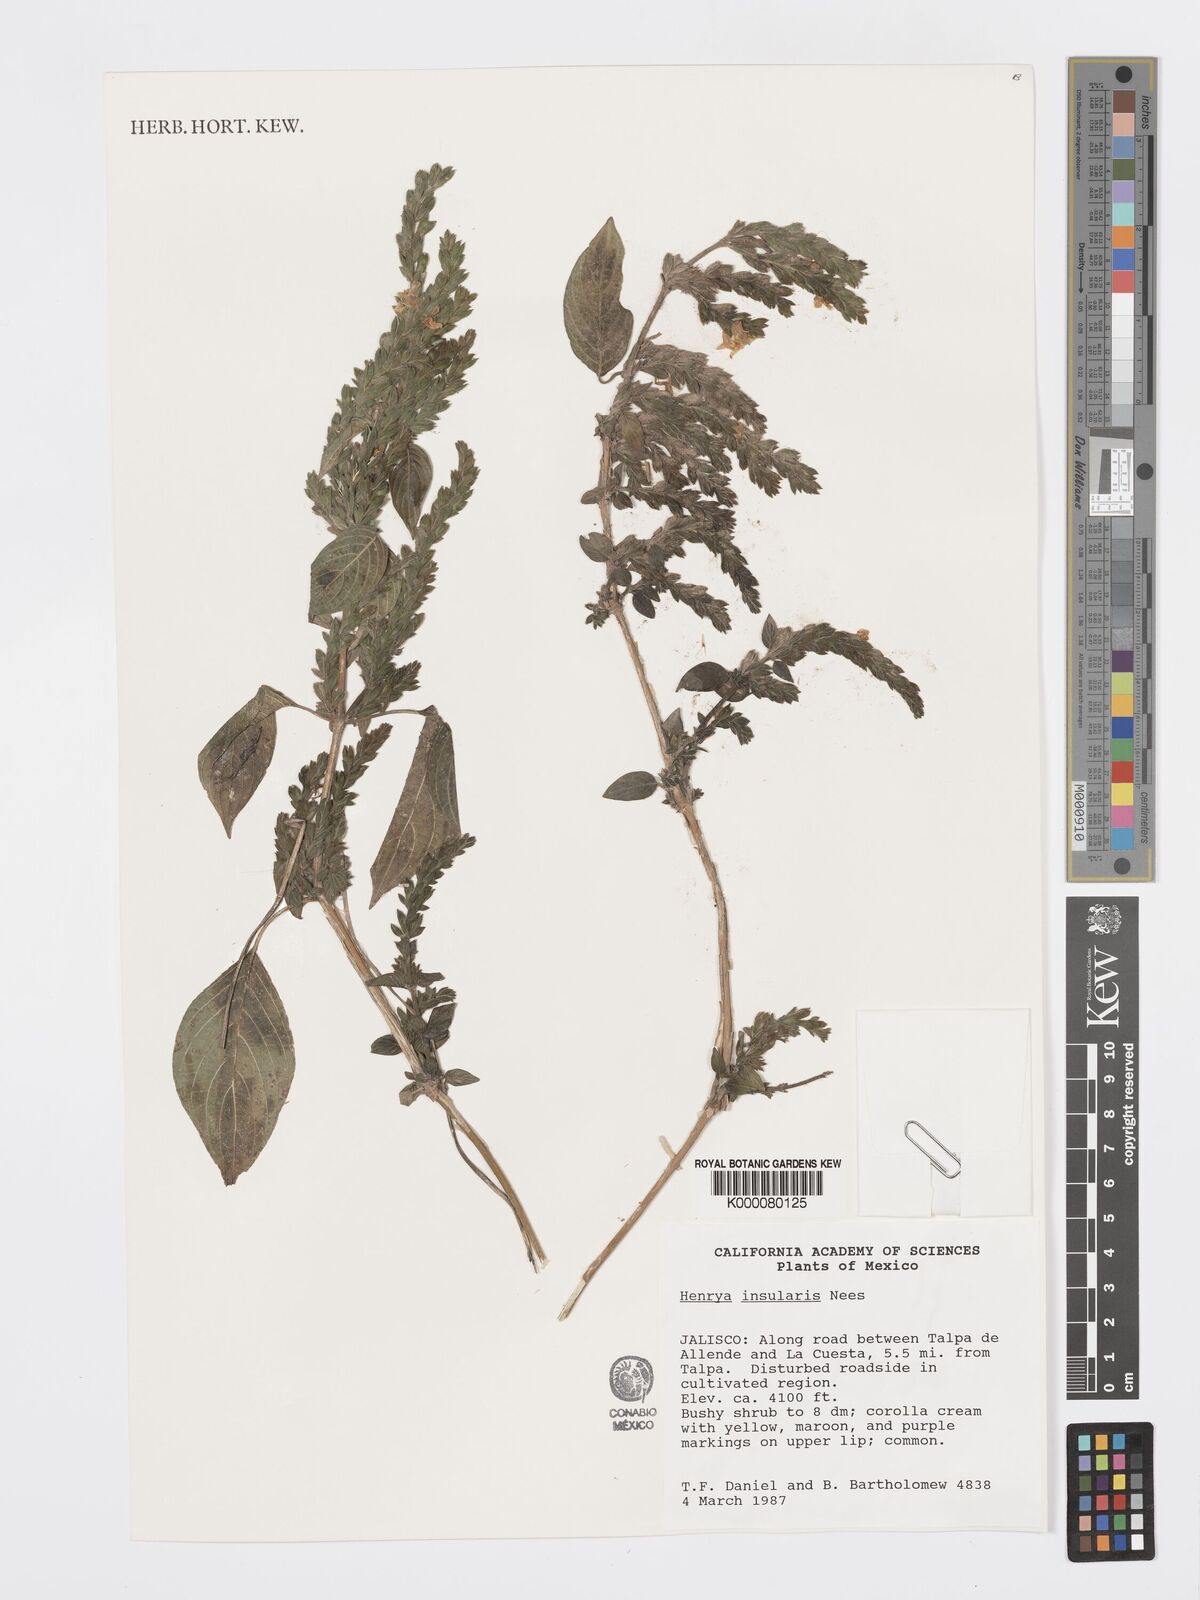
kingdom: Plantae
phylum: Tracheophyta
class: Magnoliopsida
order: Lamiales
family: Acanthaceae
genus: Henrya
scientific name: Henrya
